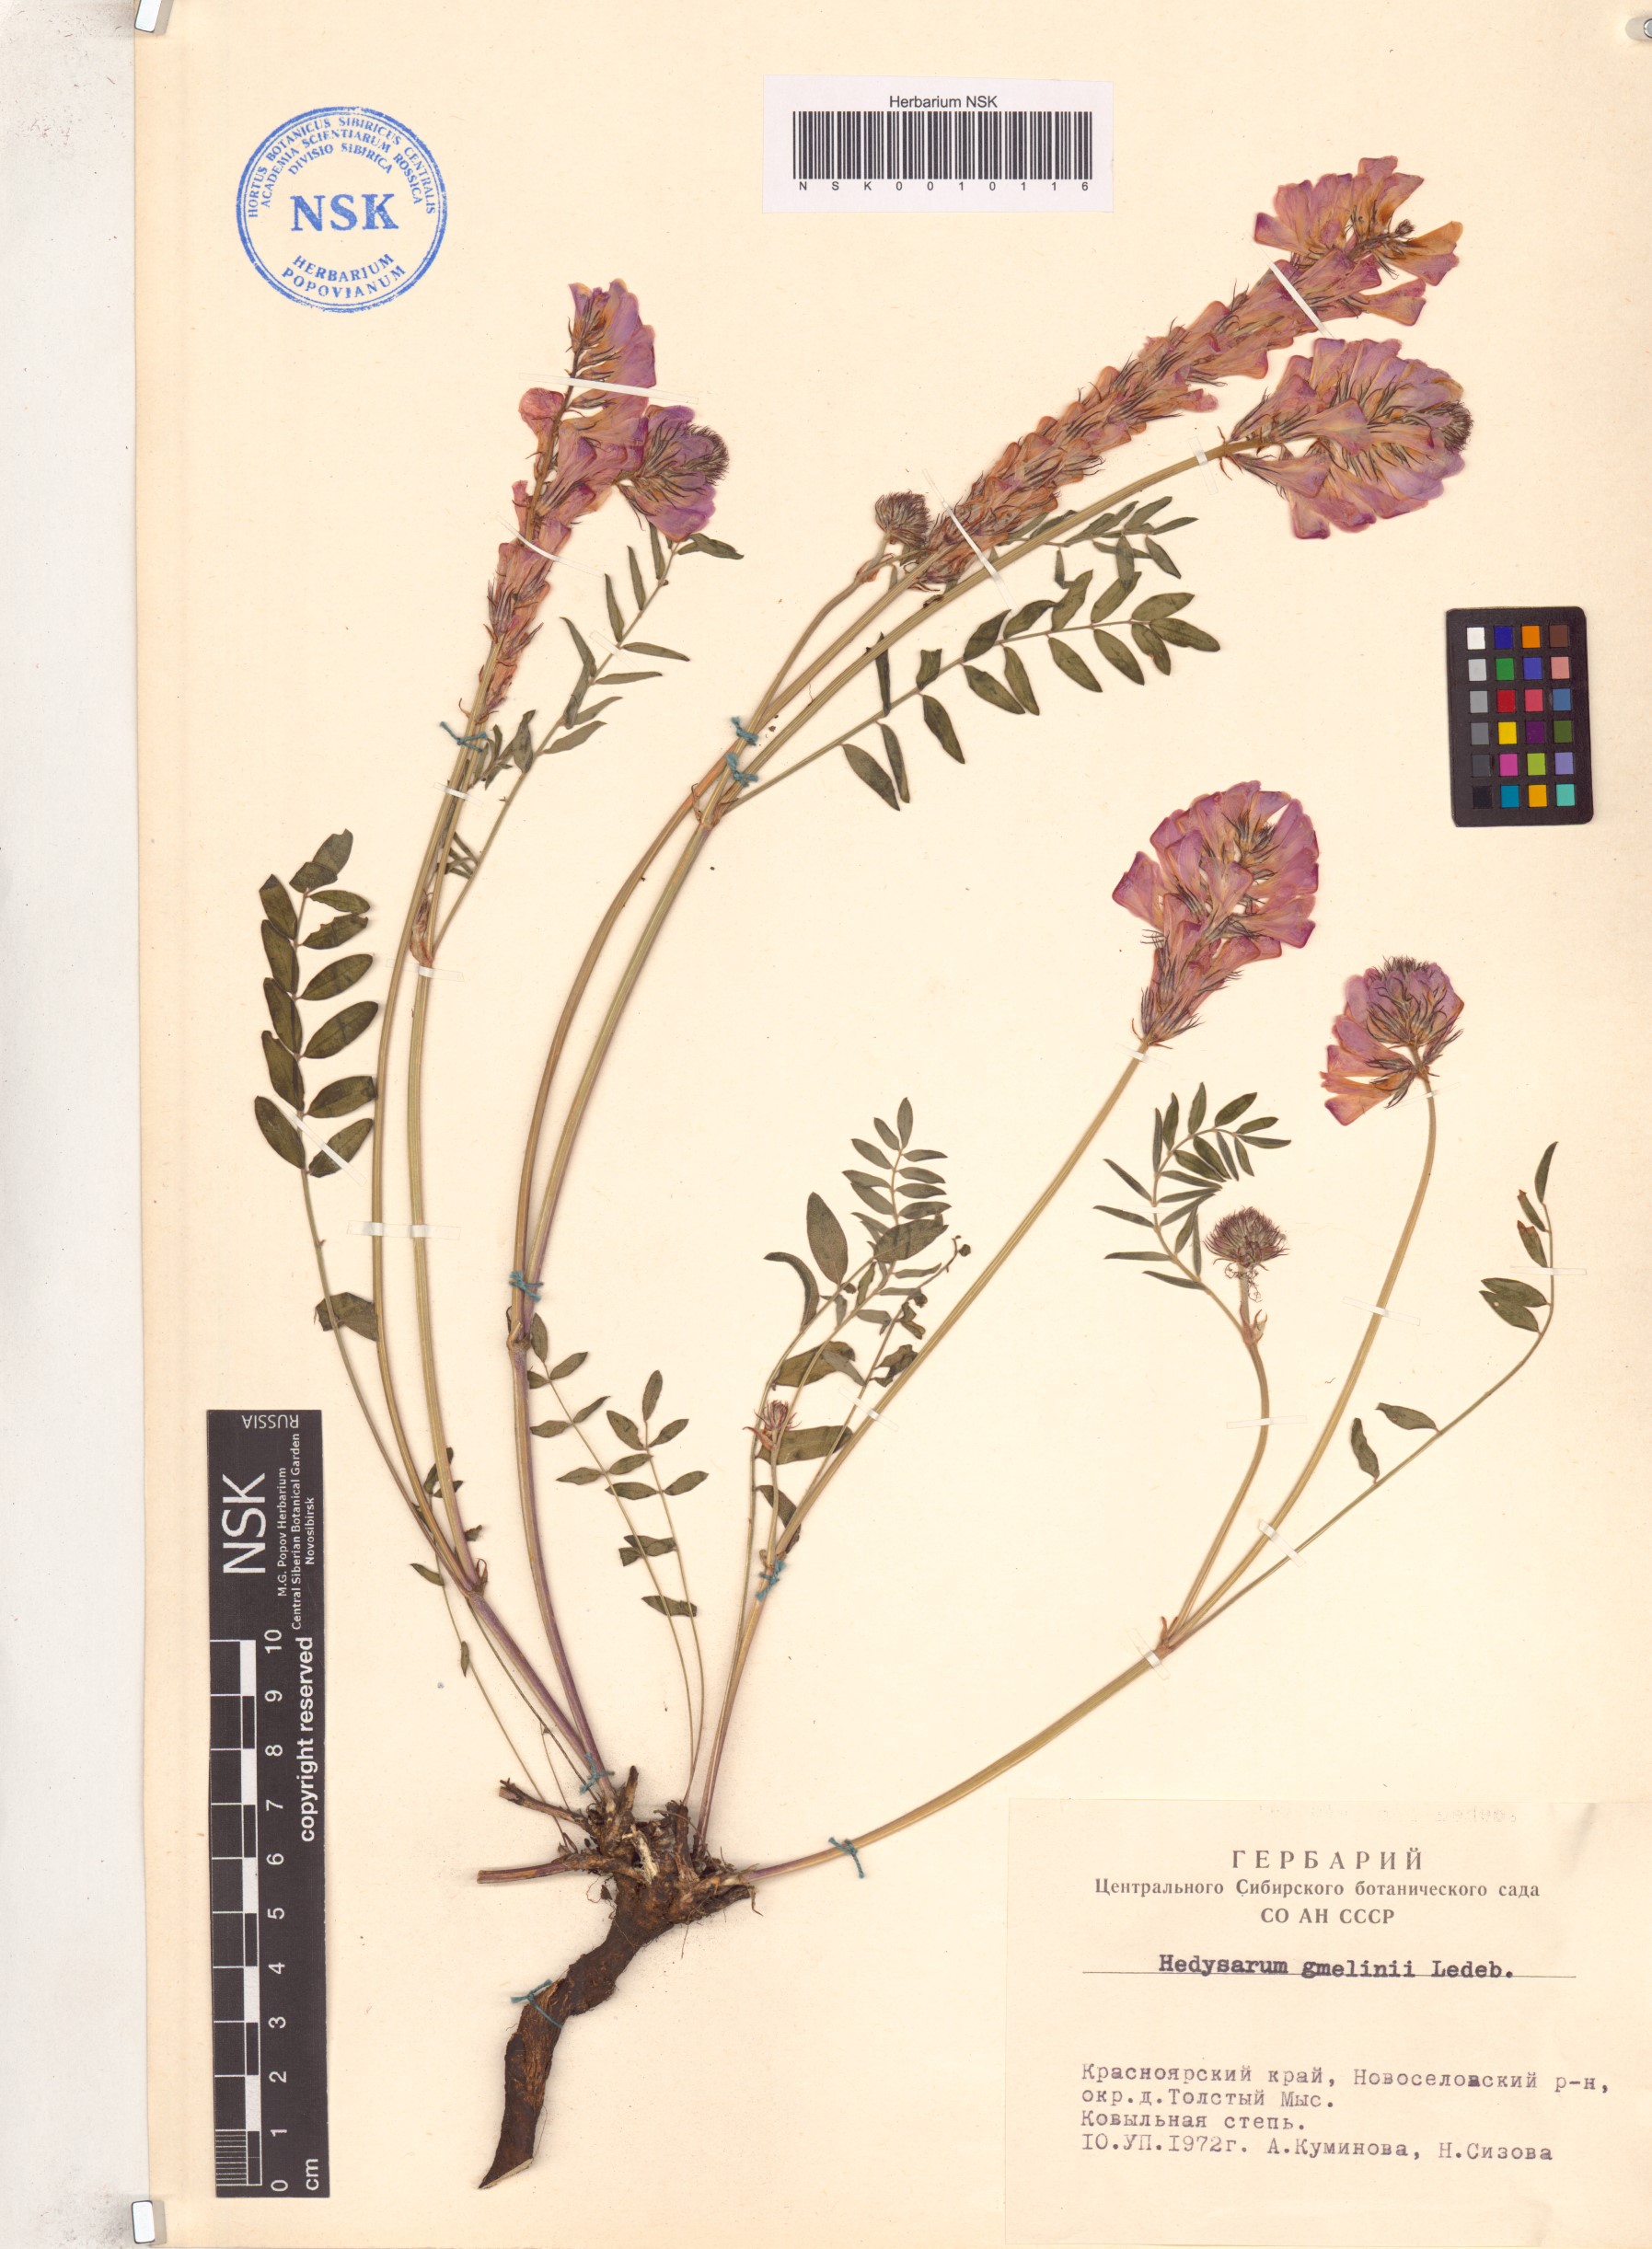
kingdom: Plantae
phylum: Tracheophyta
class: Magnoliopsida
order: Fabales
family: Fabaceae
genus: Hedysarum
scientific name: Hedysarum gmelinii
